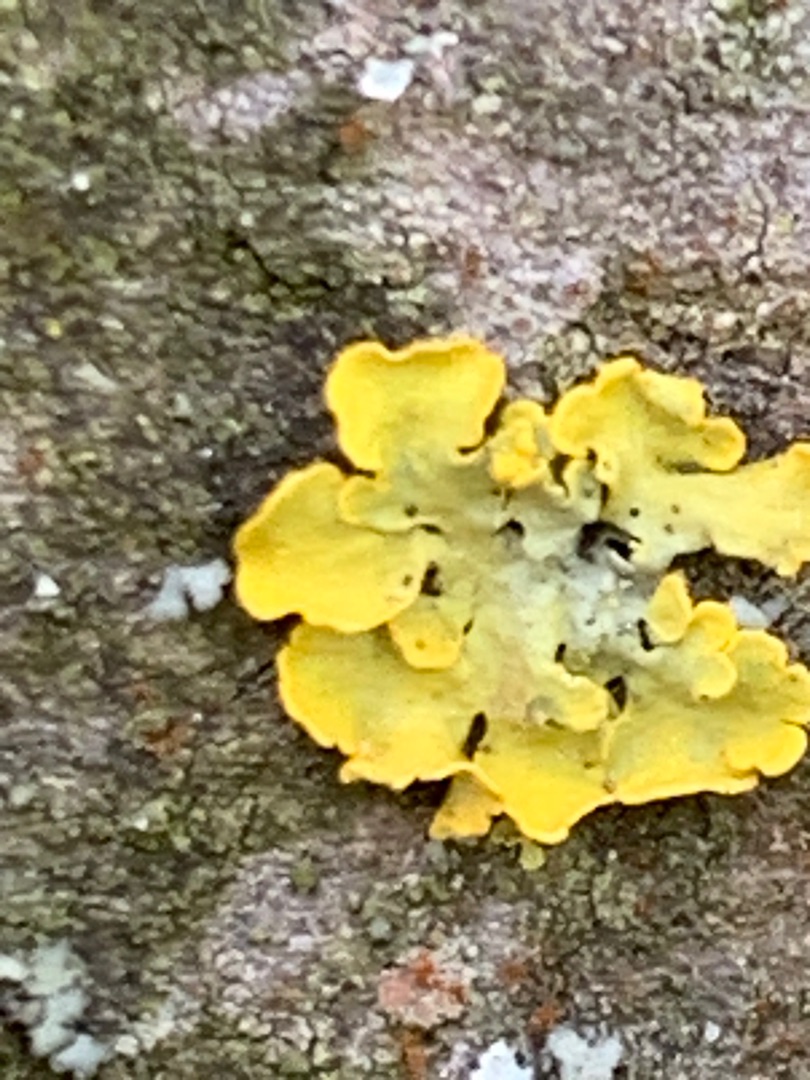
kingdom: Fungi
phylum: Ascomycota
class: Lecanoromycetes
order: Teloschistales
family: Teloschistaceae
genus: Xanthoria
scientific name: Xanthoria parietina
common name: Almindelig væggelav
